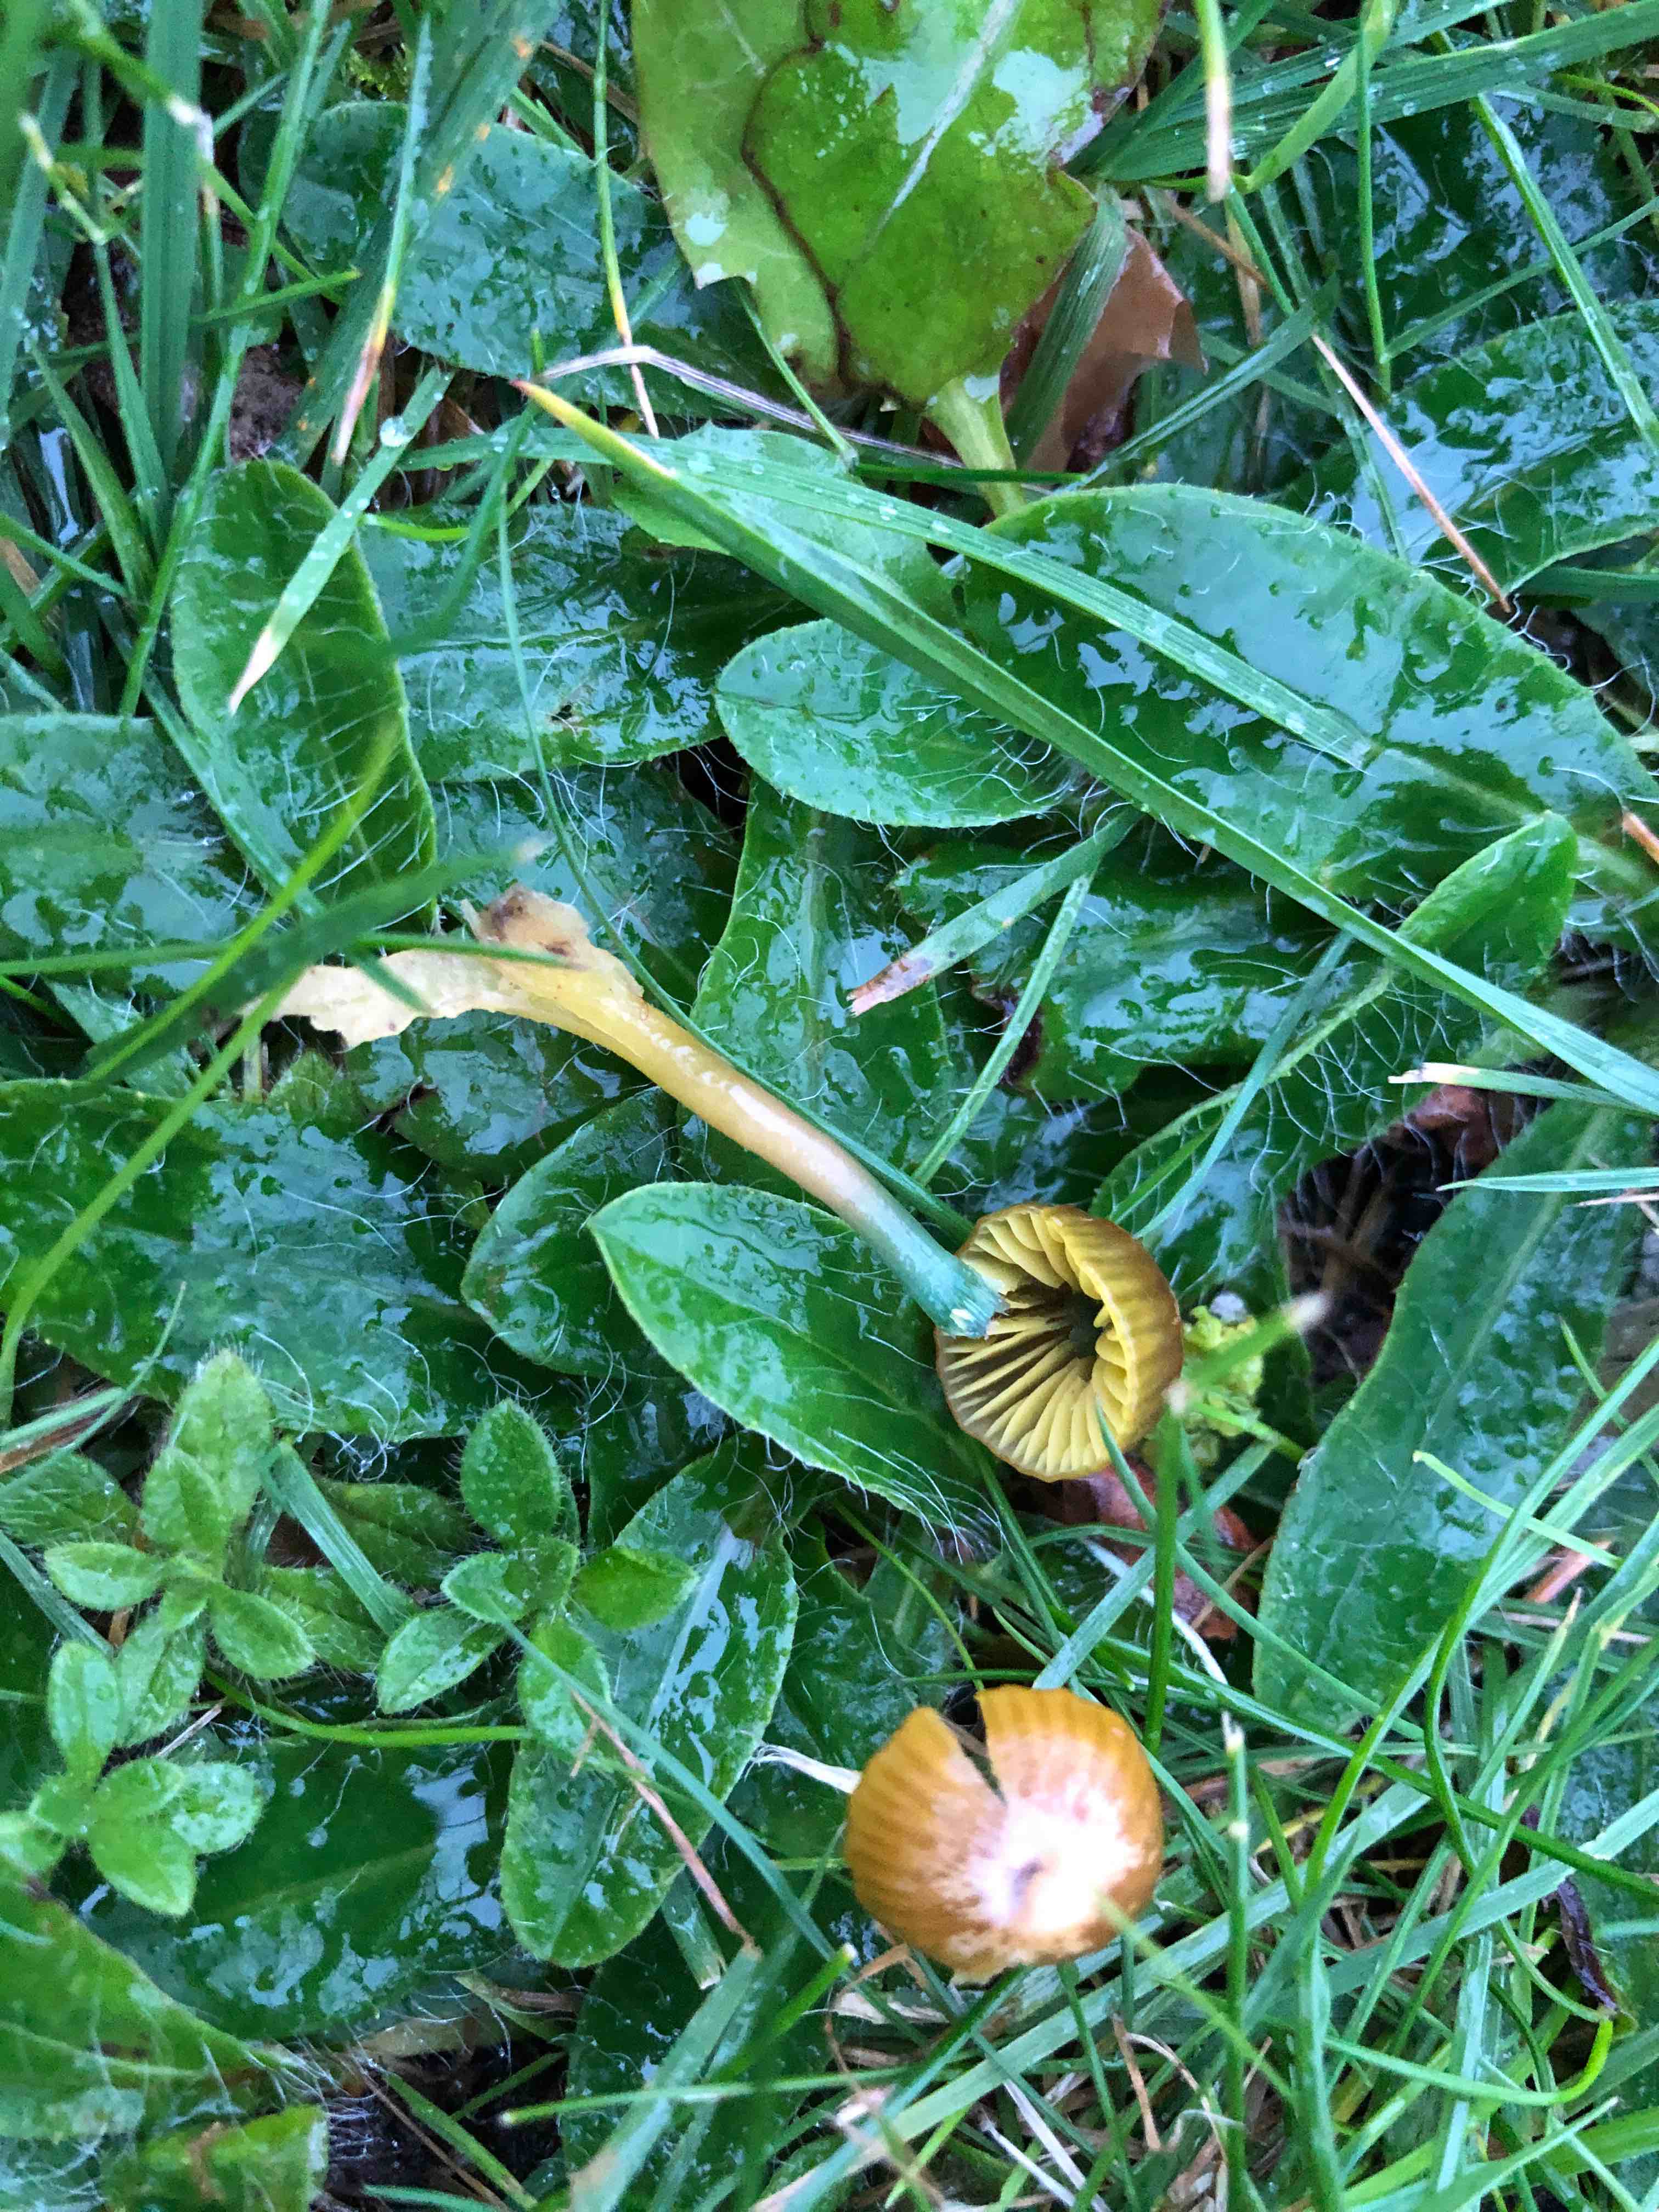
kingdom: Fungi
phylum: Basidiomycota
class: Agaricomycetes
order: Agaricales
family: Hygrophoraceae
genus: Gliophorus
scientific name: Gliophorus psittacinus
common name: papegøje-vokshat
